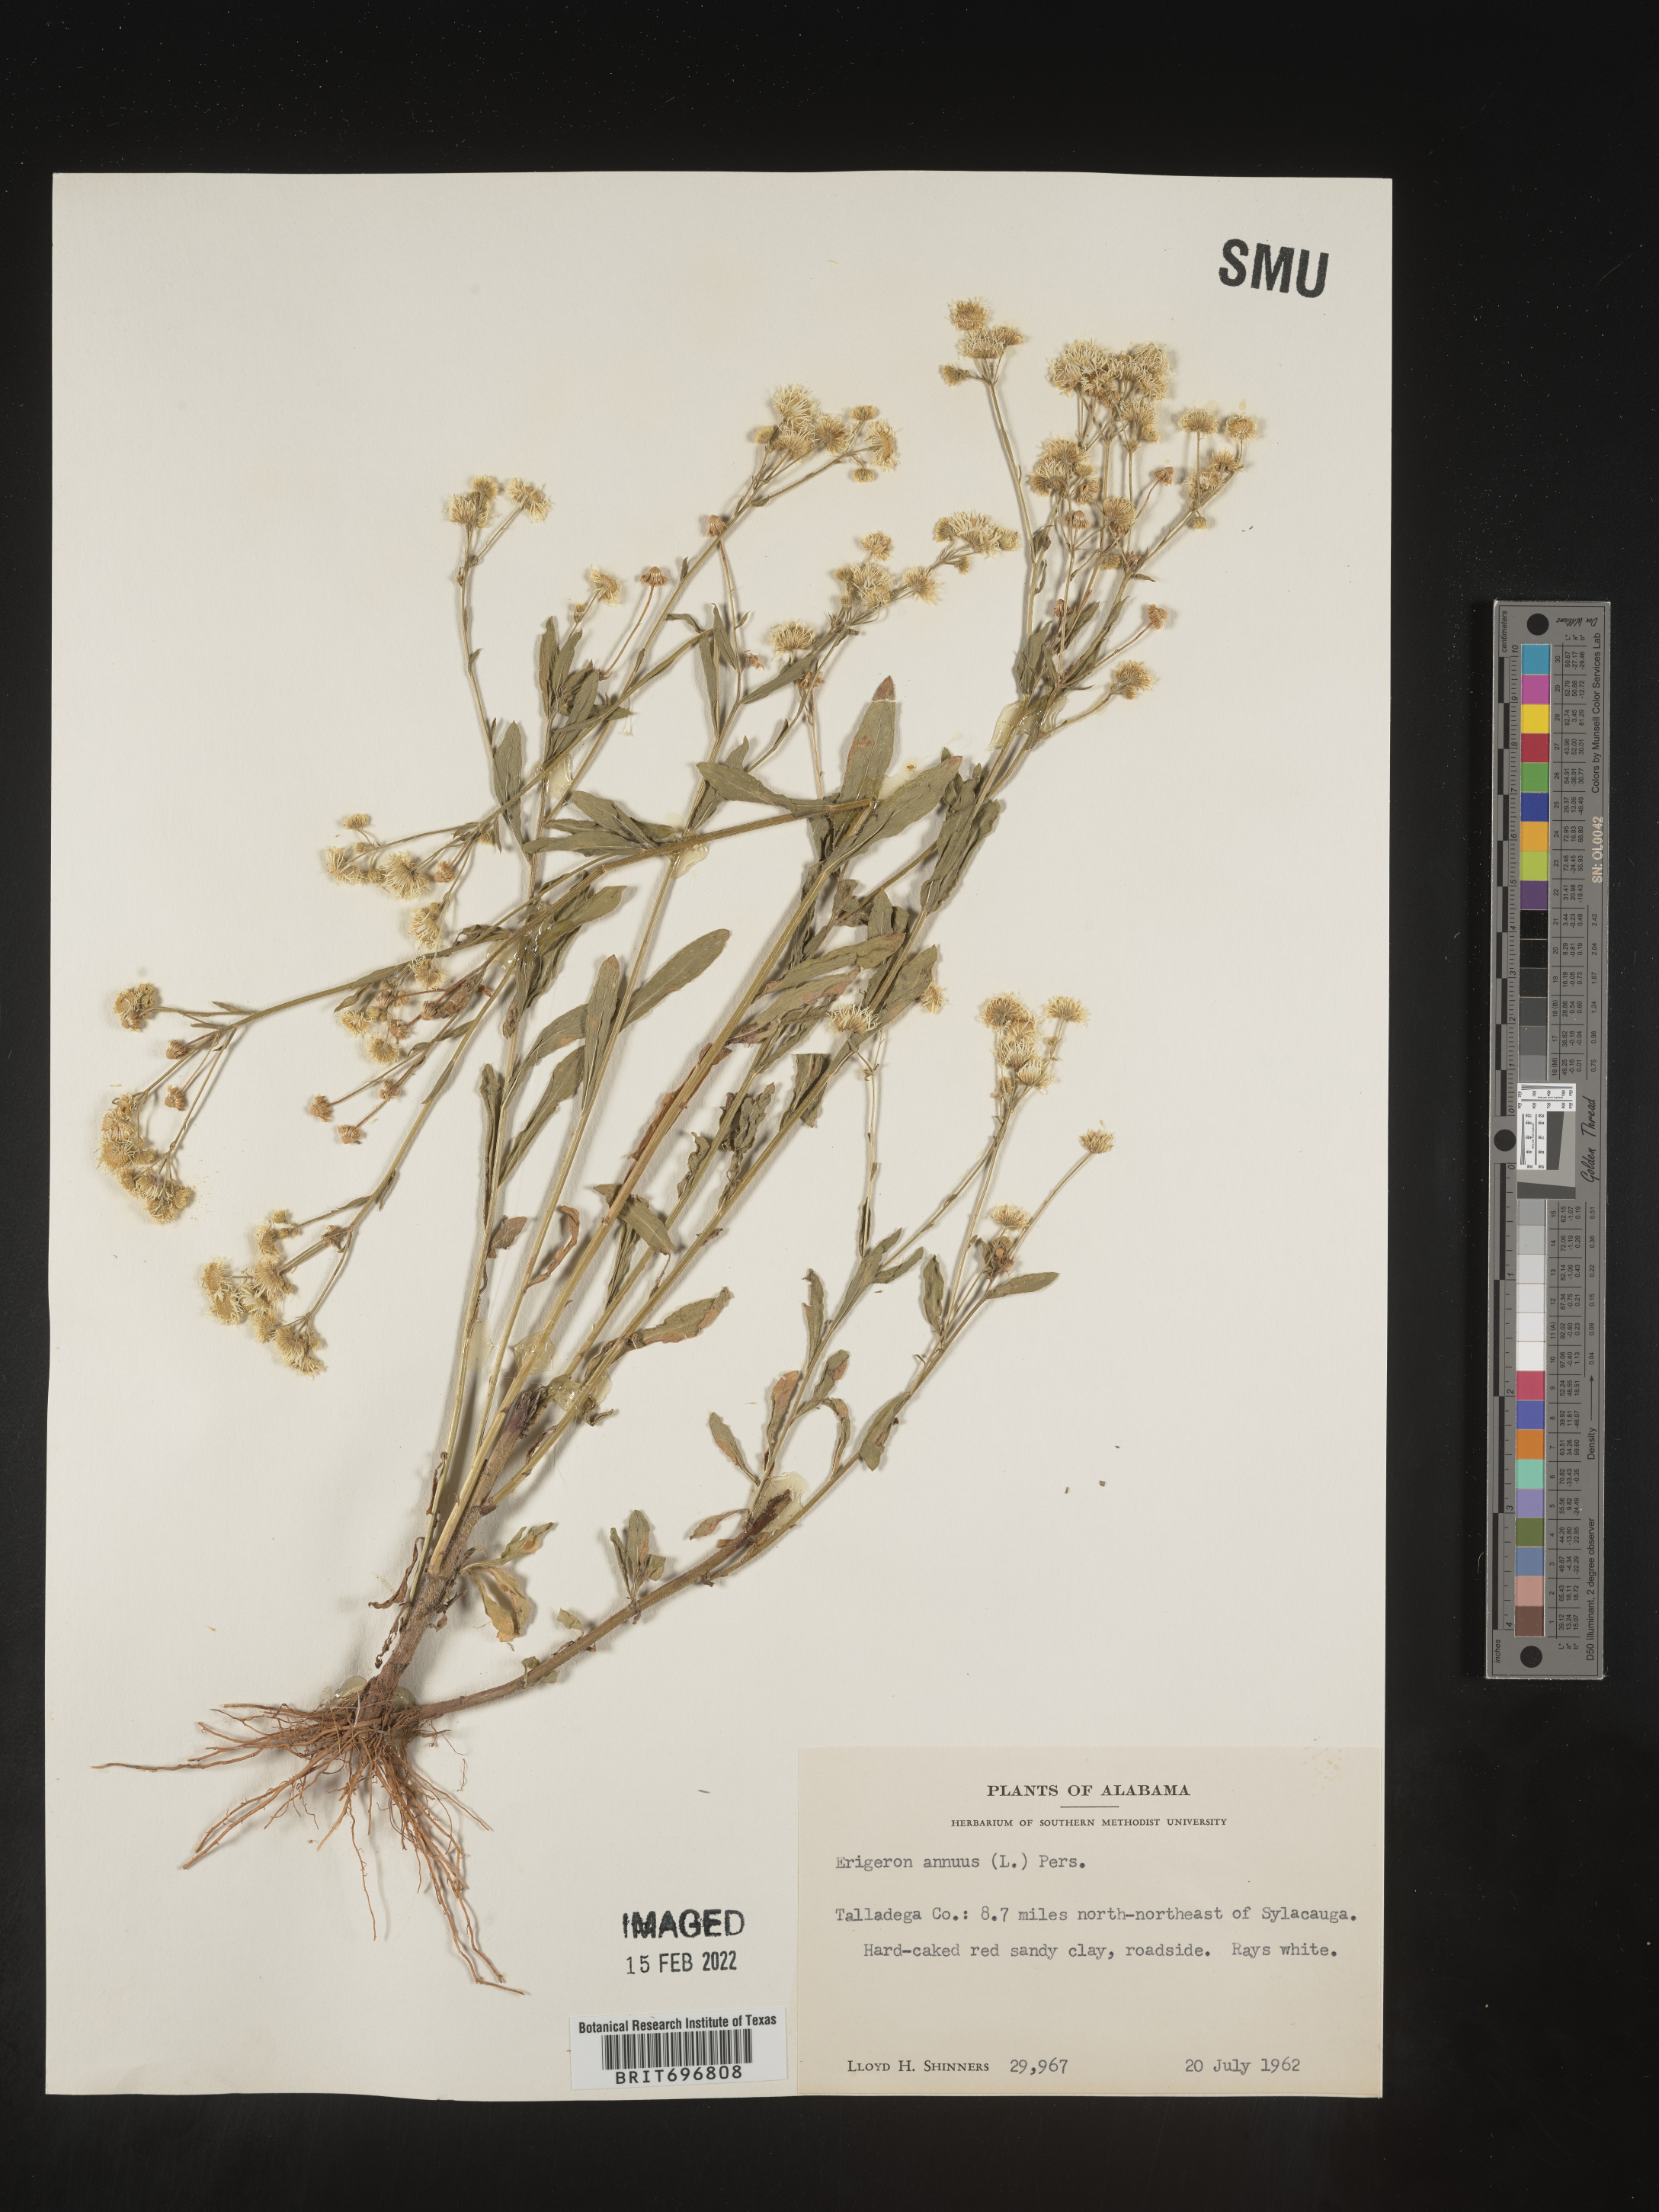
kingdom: Plantae
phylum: Tracheophyta
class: Magnoliopsida
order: Asterales
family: Asteraceae
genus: Erigeron
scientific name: Erigeron annuus
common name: Tall fleabane
